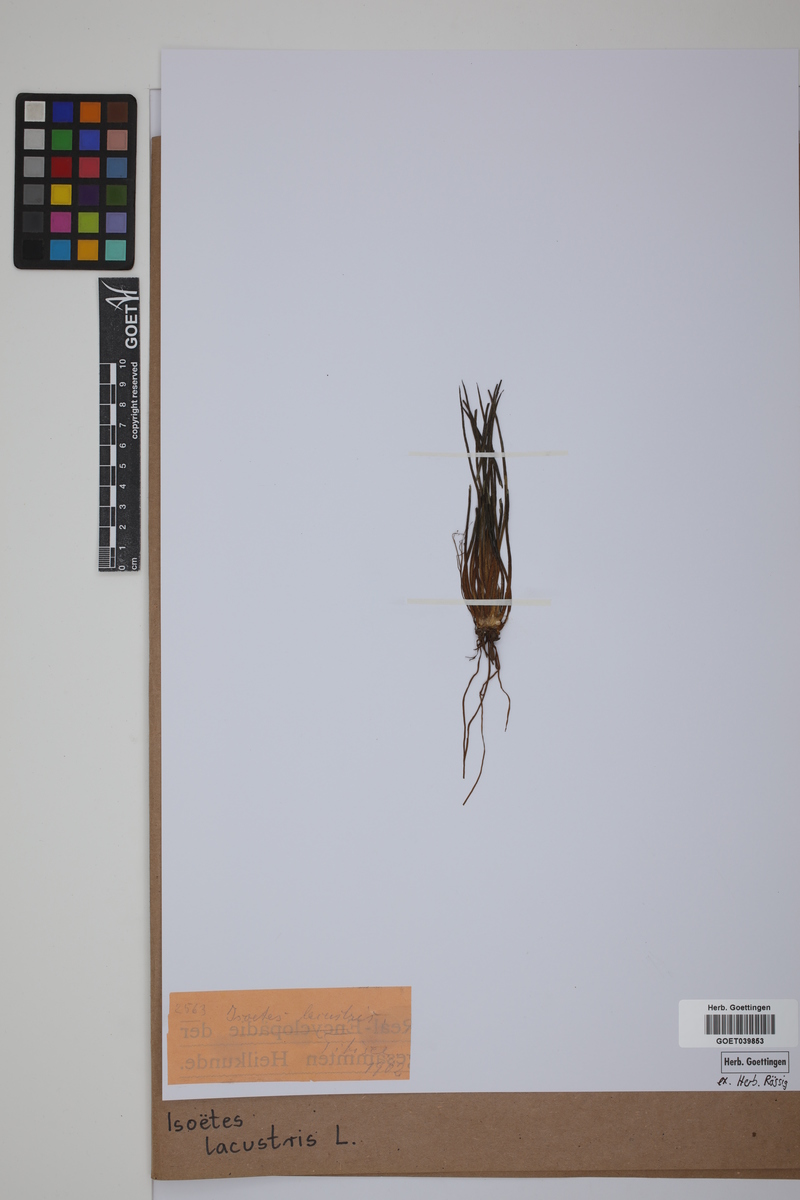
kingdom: Plantae
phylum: Tracheophyta
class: Lycopodiopsida
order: Isoetales
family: Isoetaceae
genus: Isoetes
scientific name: Isoetes lacustris
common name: Common quillwort
